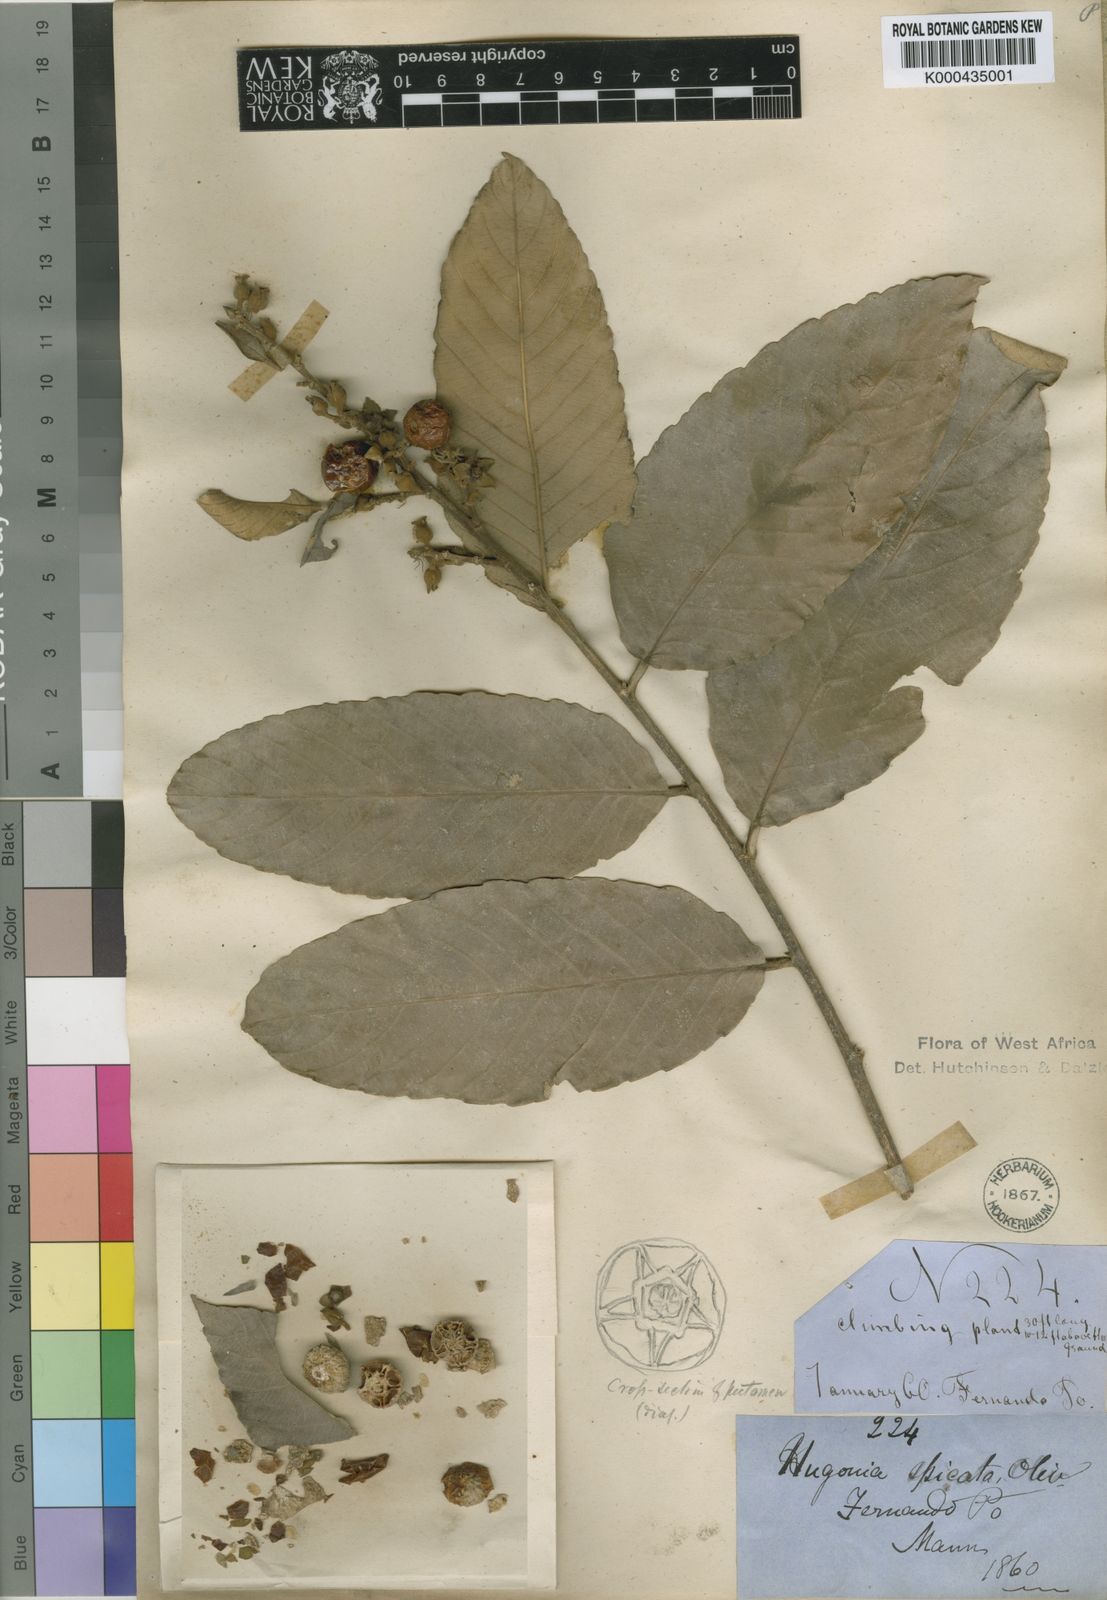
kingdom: Plantae
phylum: Tracheophyta
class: Magnoliopsida
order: Malpighiales
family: Linaceae
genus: Hugonia
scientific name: Hugonia spicata
